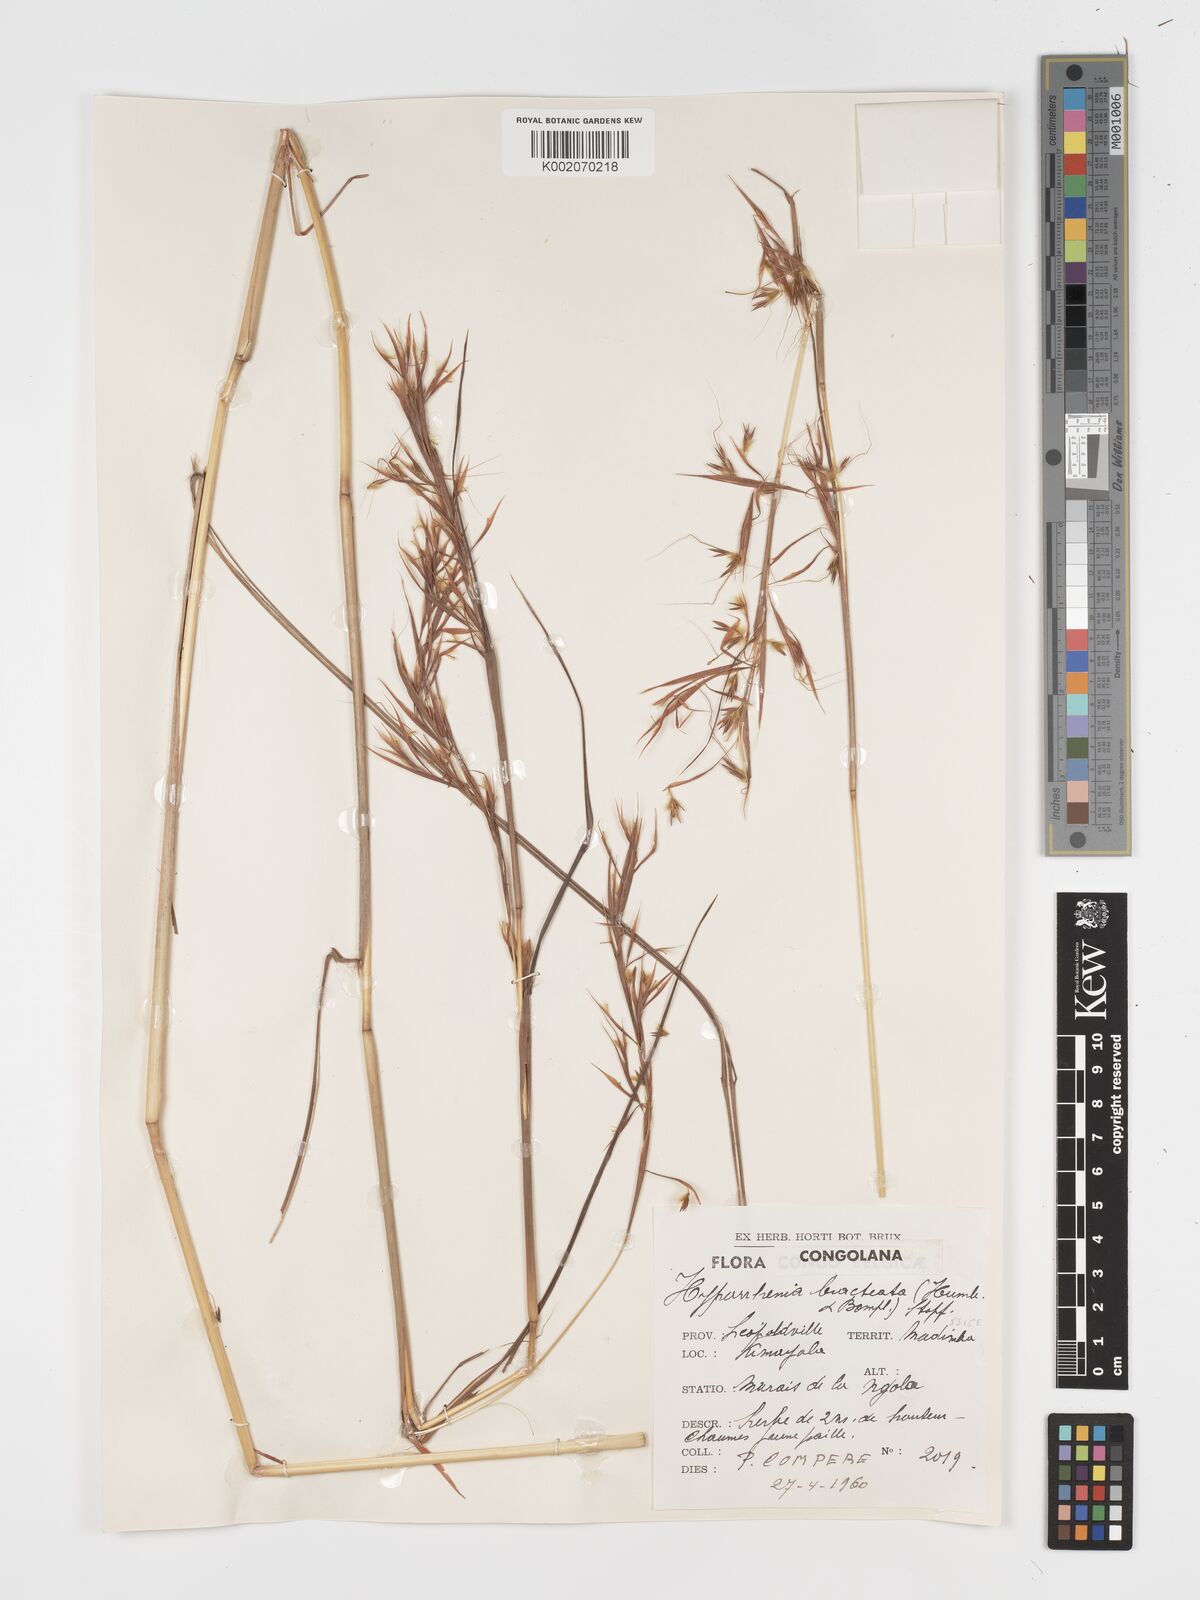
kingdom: Plantae
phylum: Tracheophyta
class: Liliopsida
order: Poales
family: Poaceae
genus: Hyparrhenia
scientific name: Hyparrhenia bracteata
